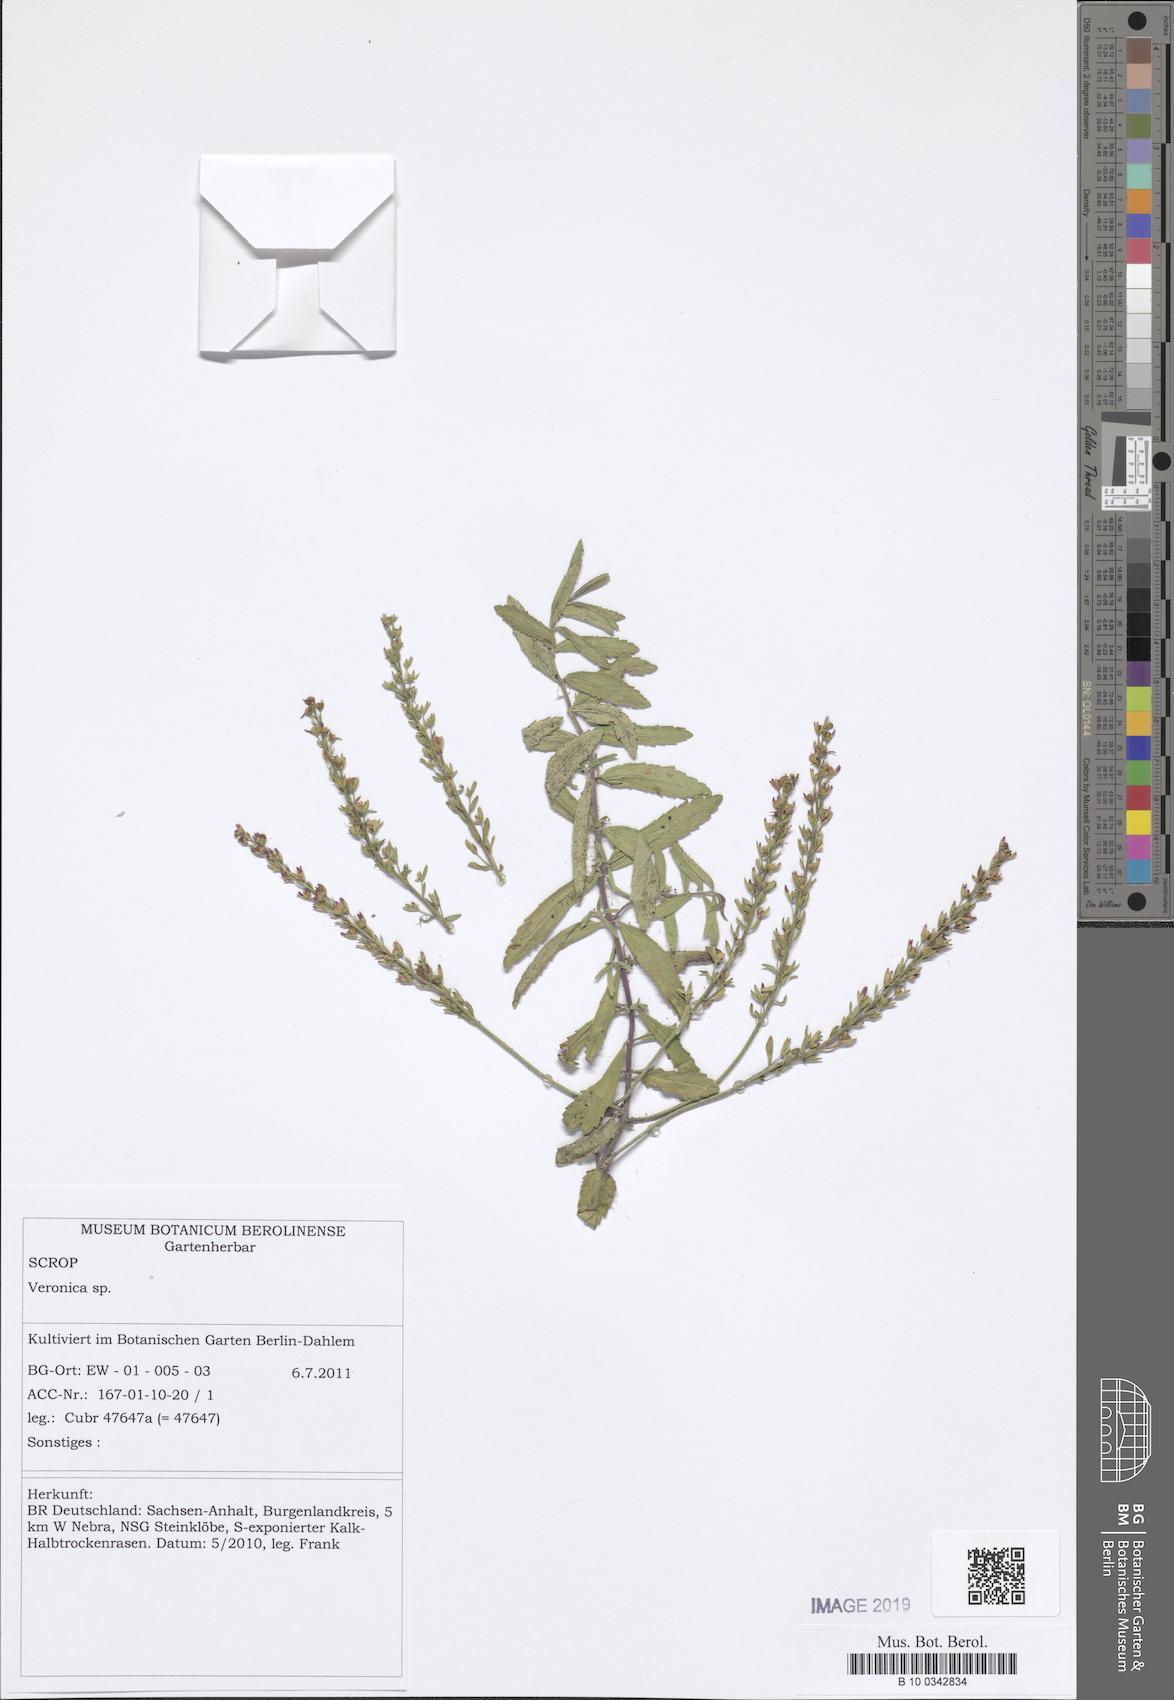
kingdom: Plantae
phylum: Tracheophyta
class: Magnoliopsida
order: Lamiales
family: Plantaginaceae
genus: Veronica
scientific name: Veronica
